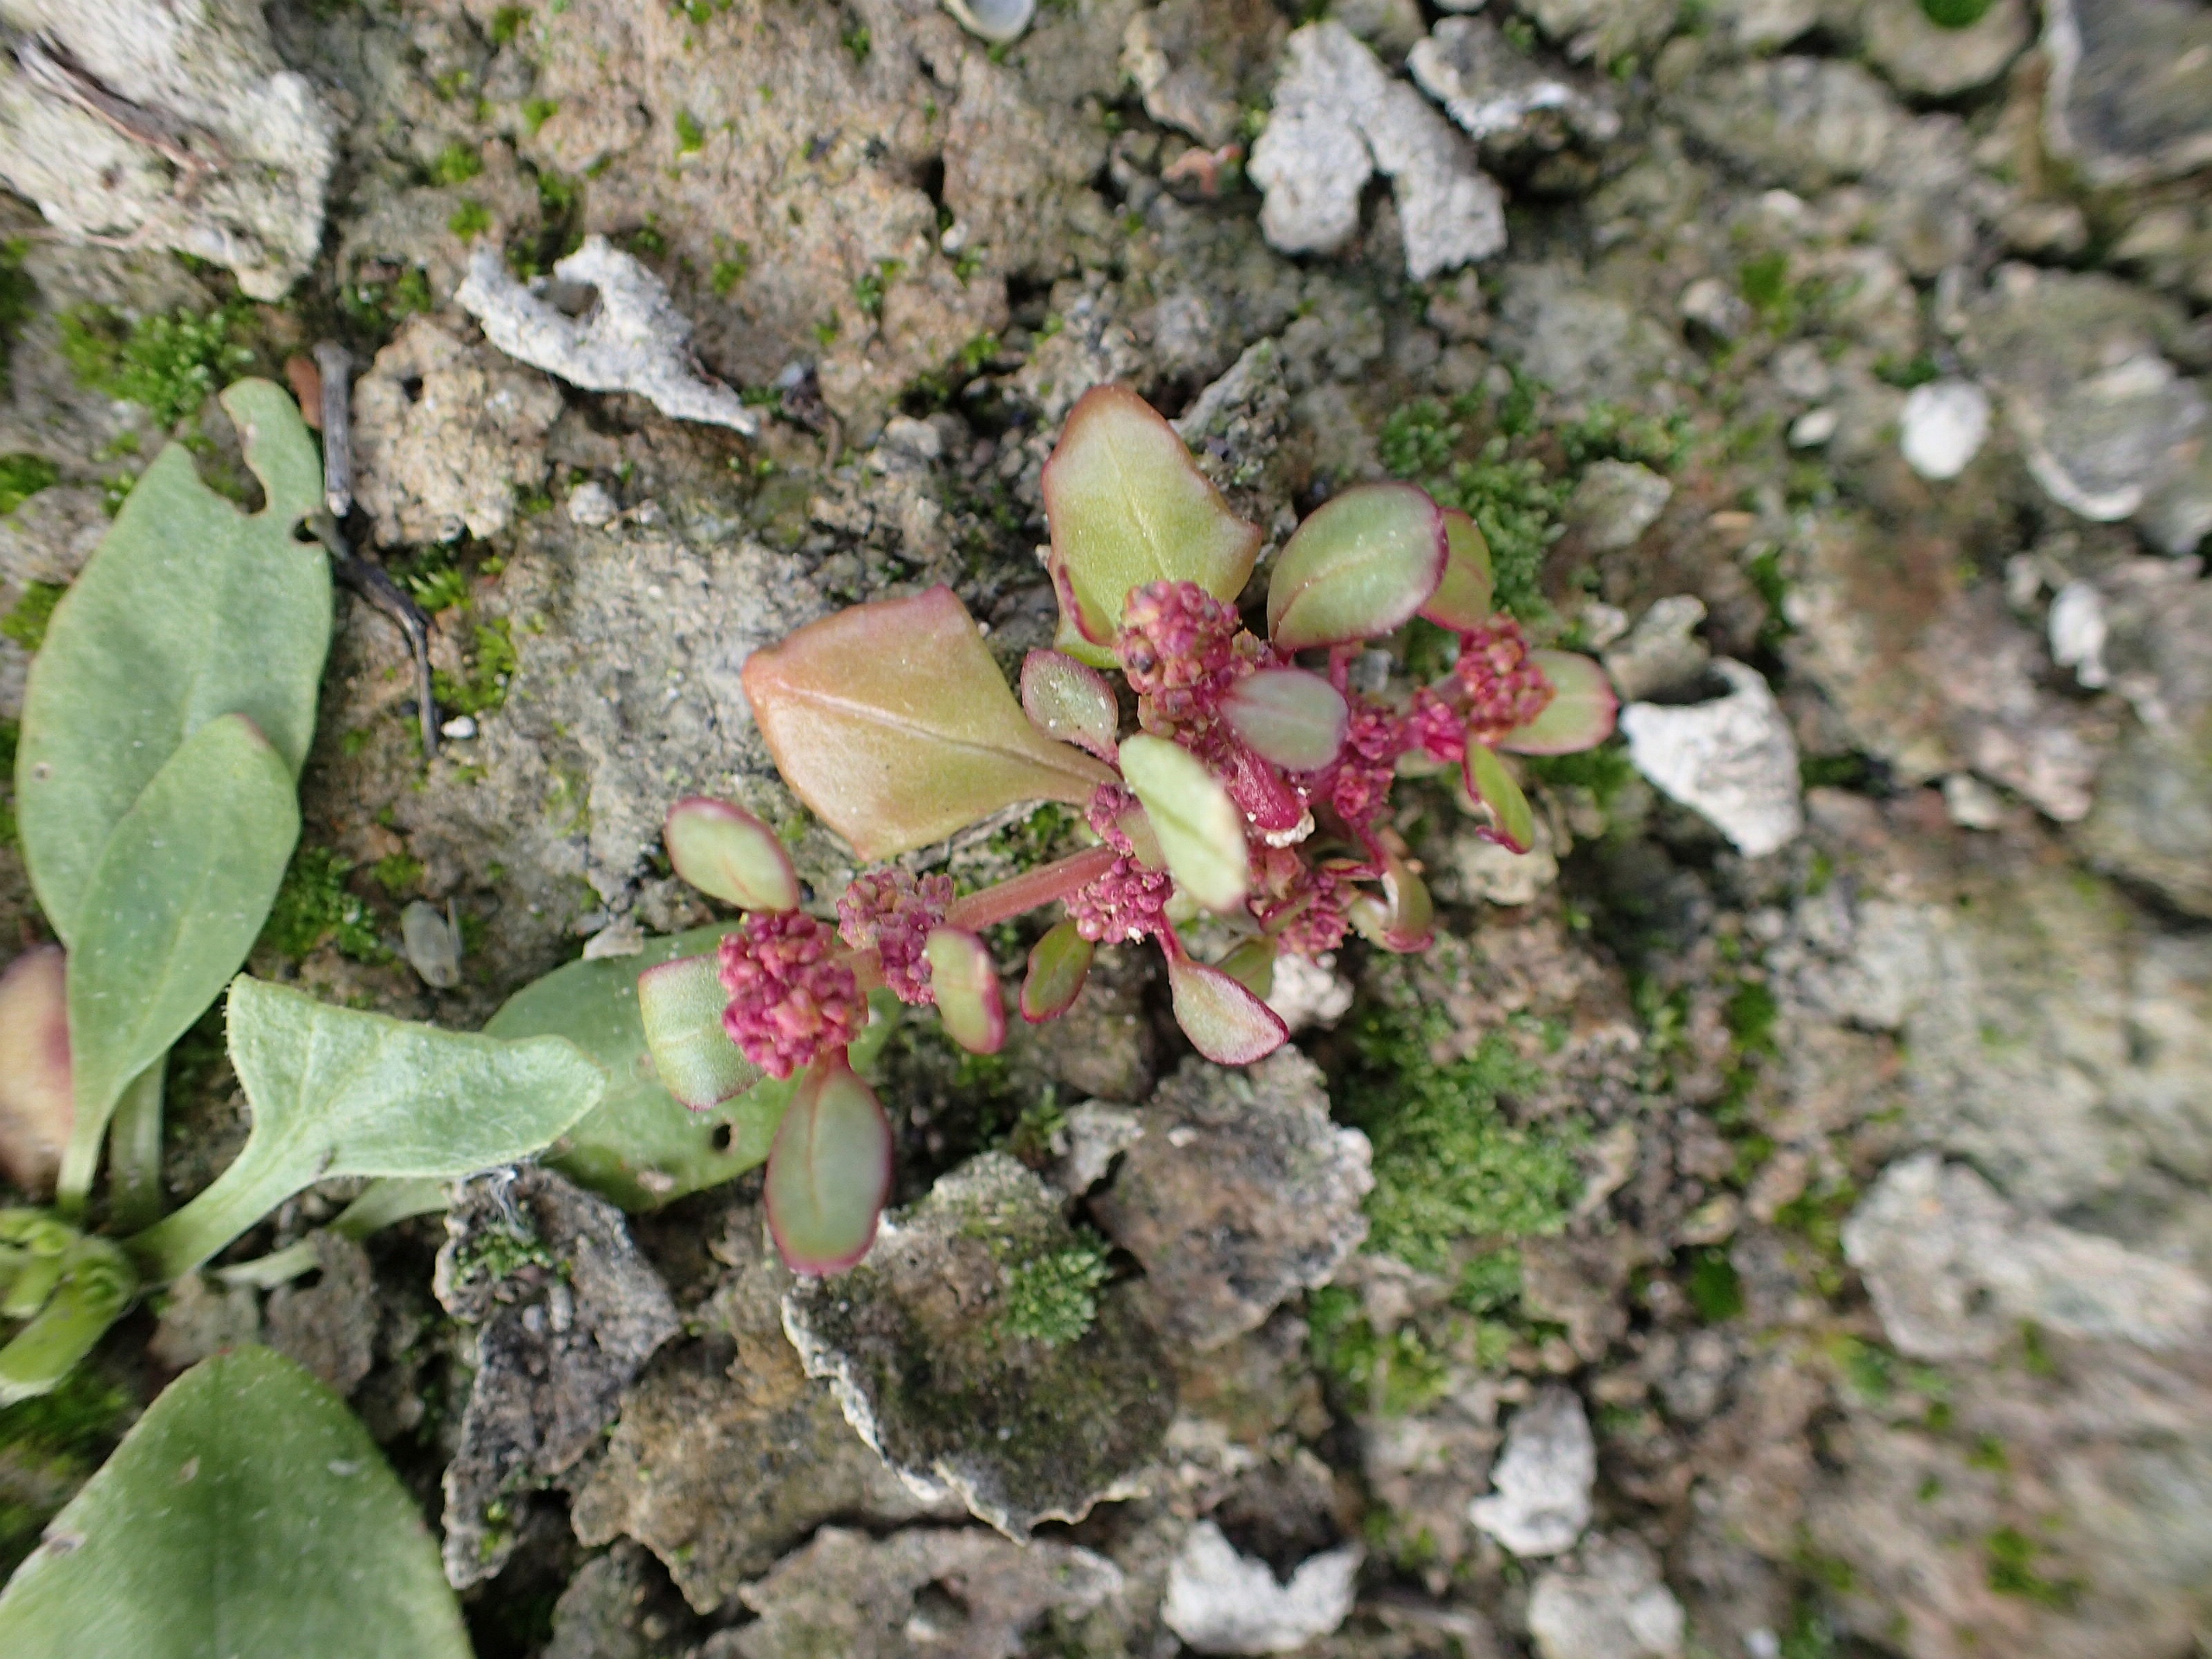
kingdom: Plantae
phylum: Tracheophyta
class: Magnoliopsida
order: Caryophyllales
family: Amaranthaceae
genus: Oxybasis
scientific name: Oxybasis chenopodioides
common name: Drue-gåsefod
